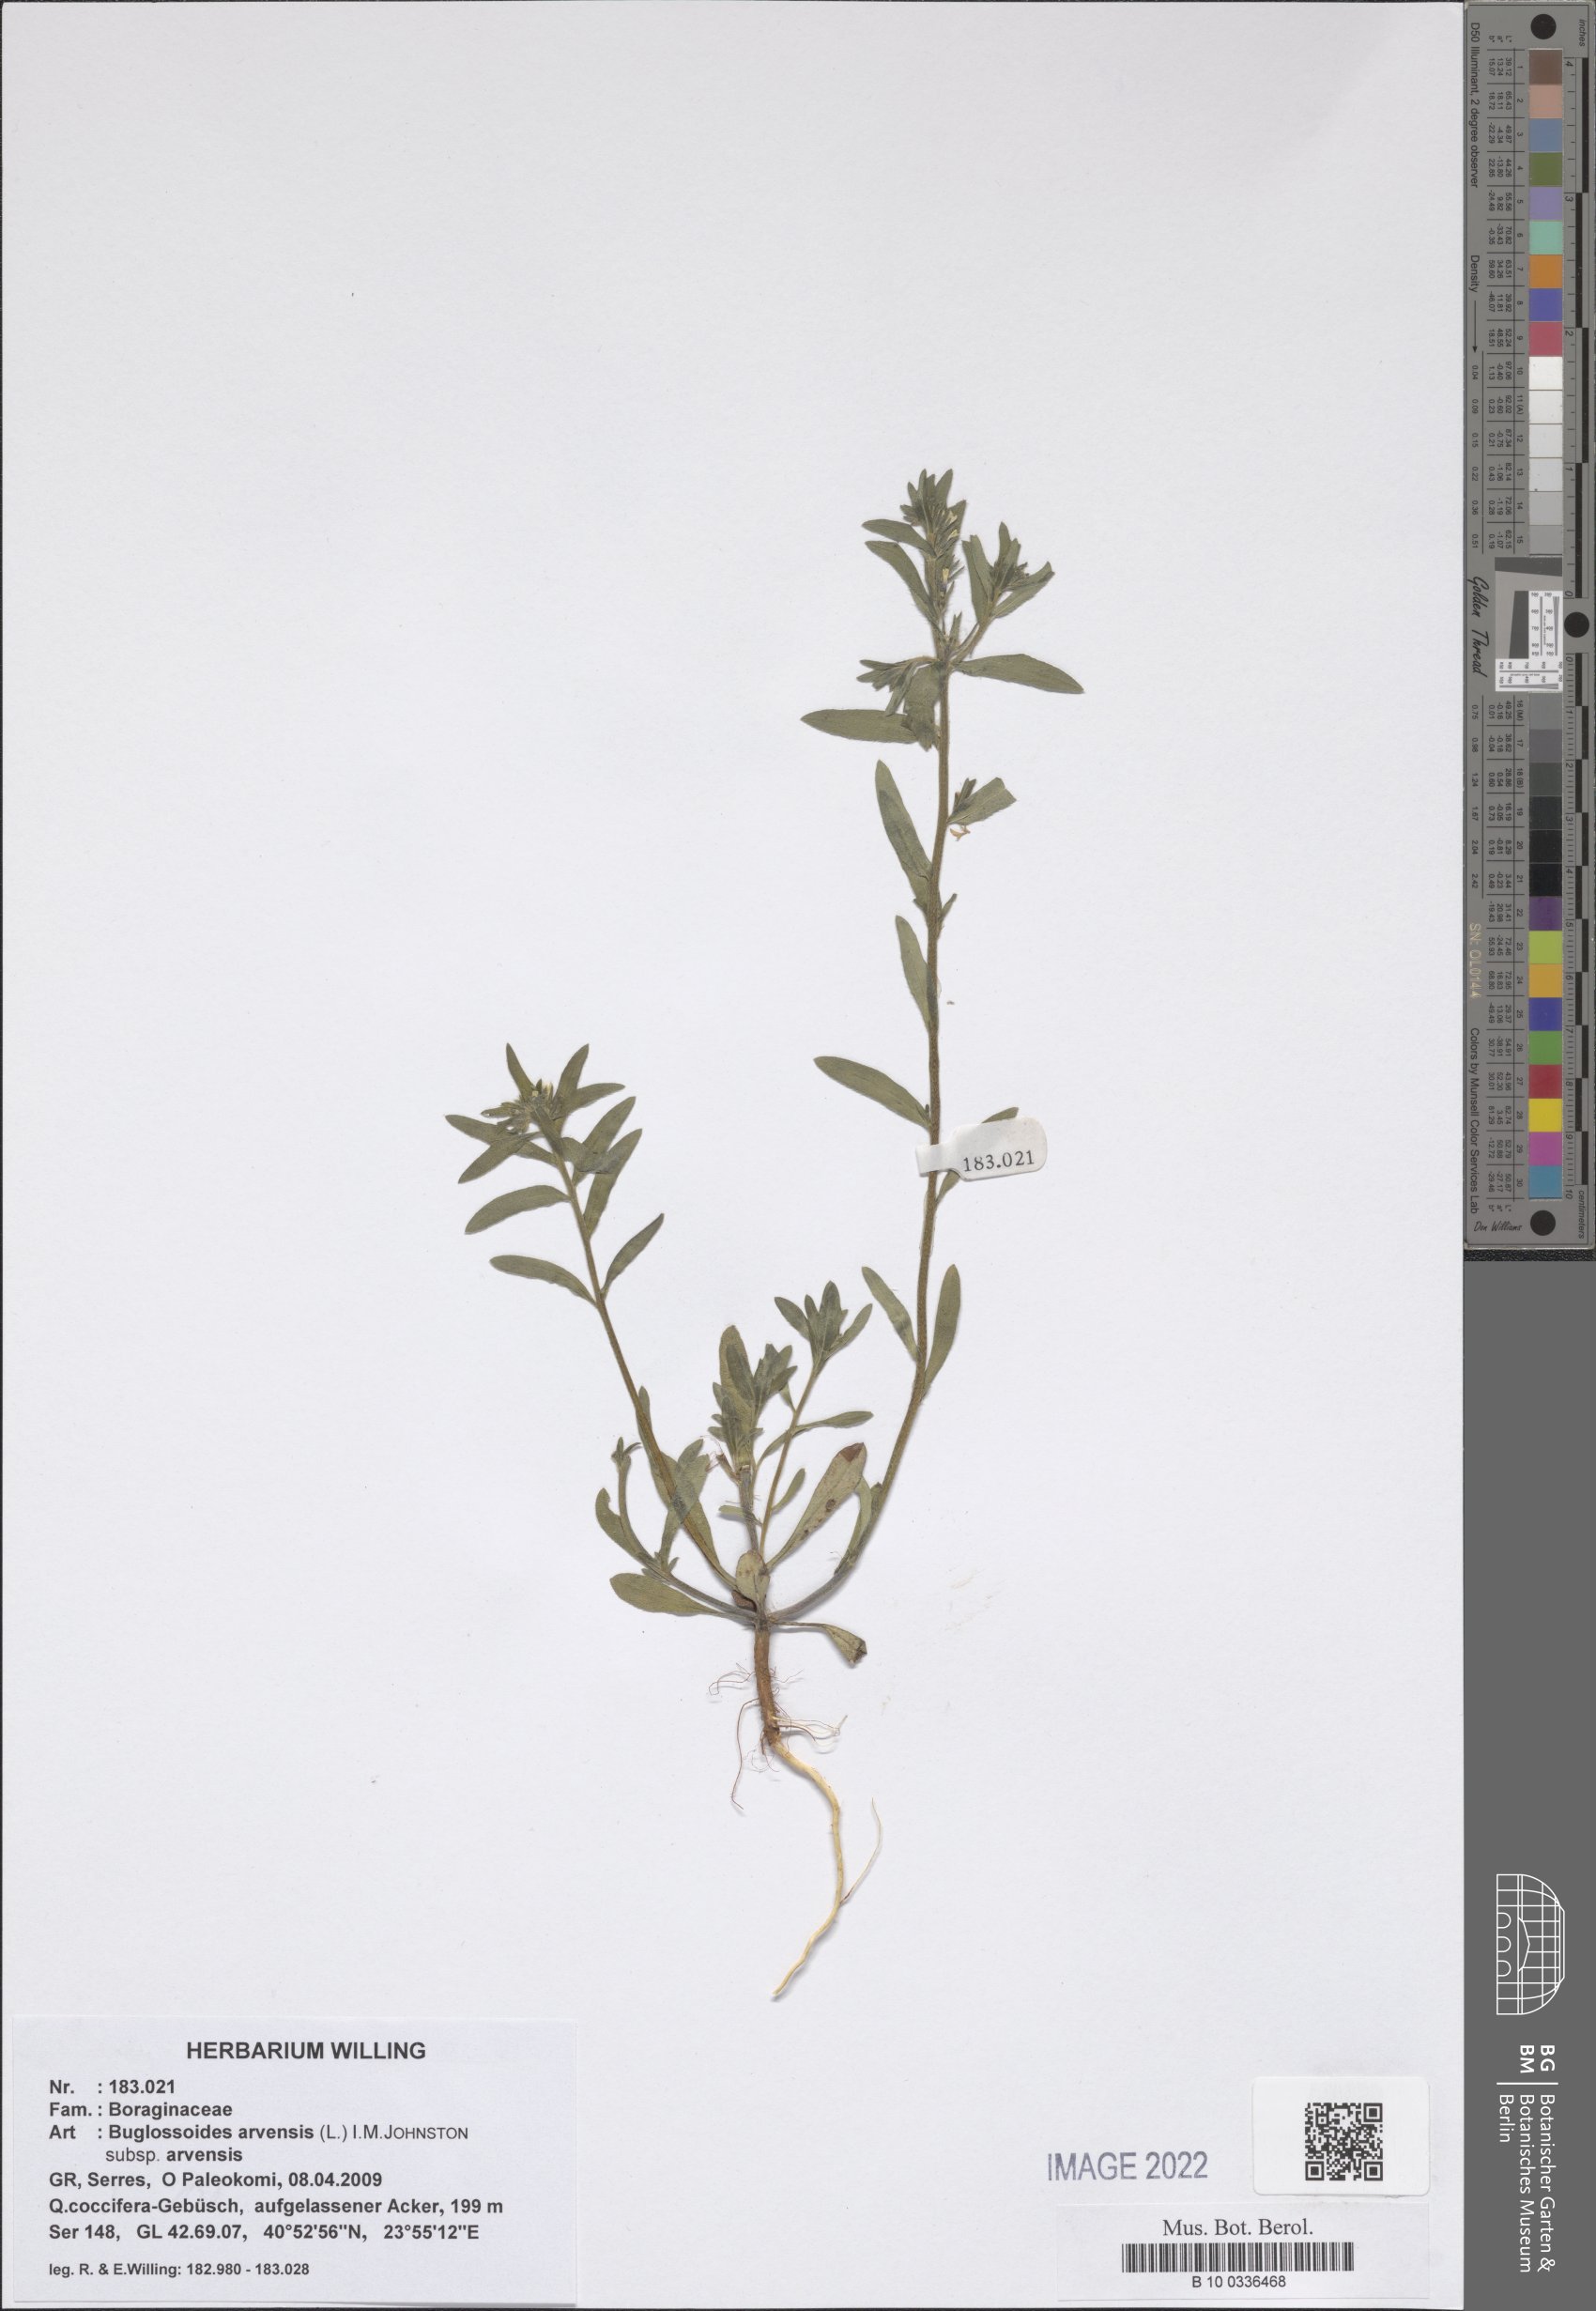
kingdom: Plantae
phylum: Tracheophyta
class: Magnoliopsida
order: Boraginales
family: Boraginaceae
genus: Buglossoides
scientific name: Buglossoides arvensis
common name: Corn gromwell
